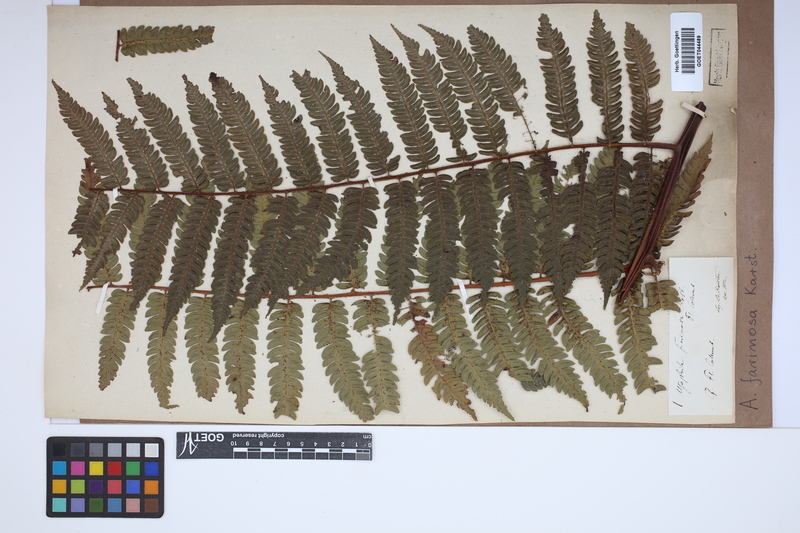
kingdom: Plantae
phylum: Tracheophyta
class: Polypodiopsida
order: Cyatheales
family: Cyatheaceae
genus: Cyathea
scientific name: Cyathea gibbosa
